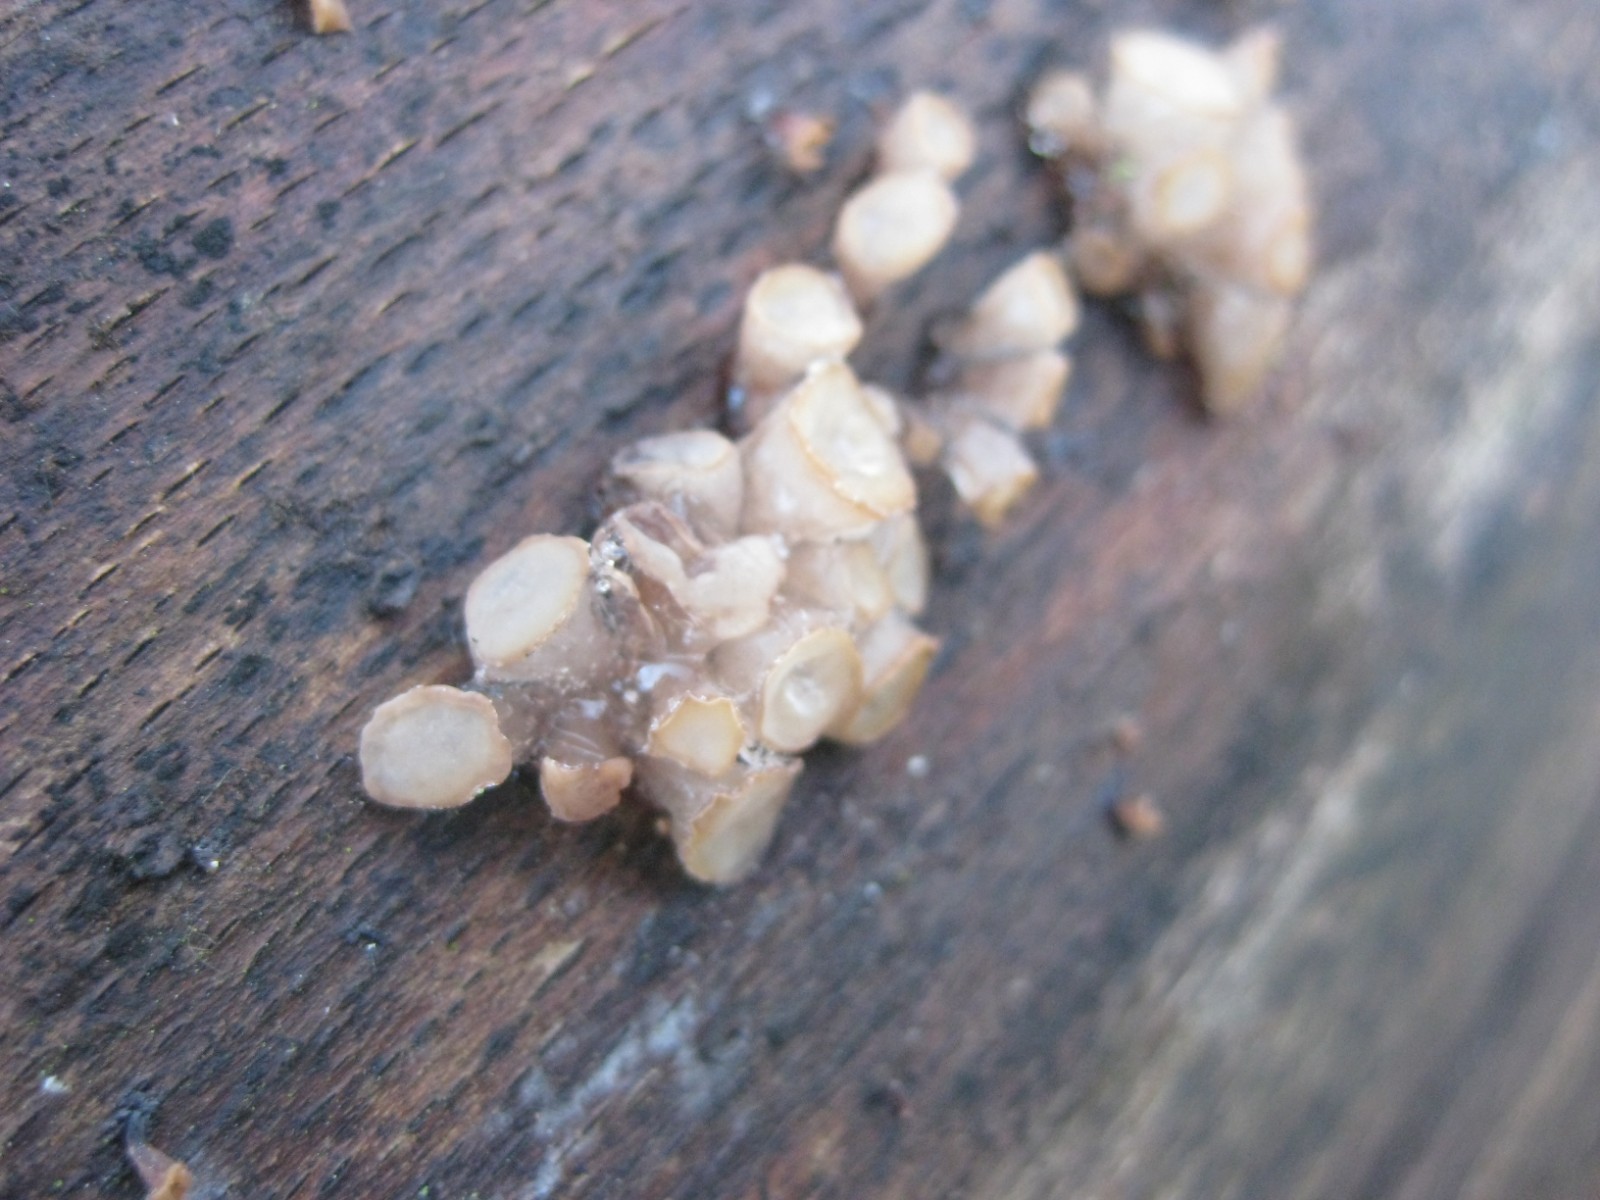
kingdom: Fungi
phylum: Ascomycota
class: Leotiomycetes
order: Helotiales
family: Gelatinodiscaceae
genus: Neobulgaria
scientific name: Neobulgaria pura
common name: bleg bævreskive
